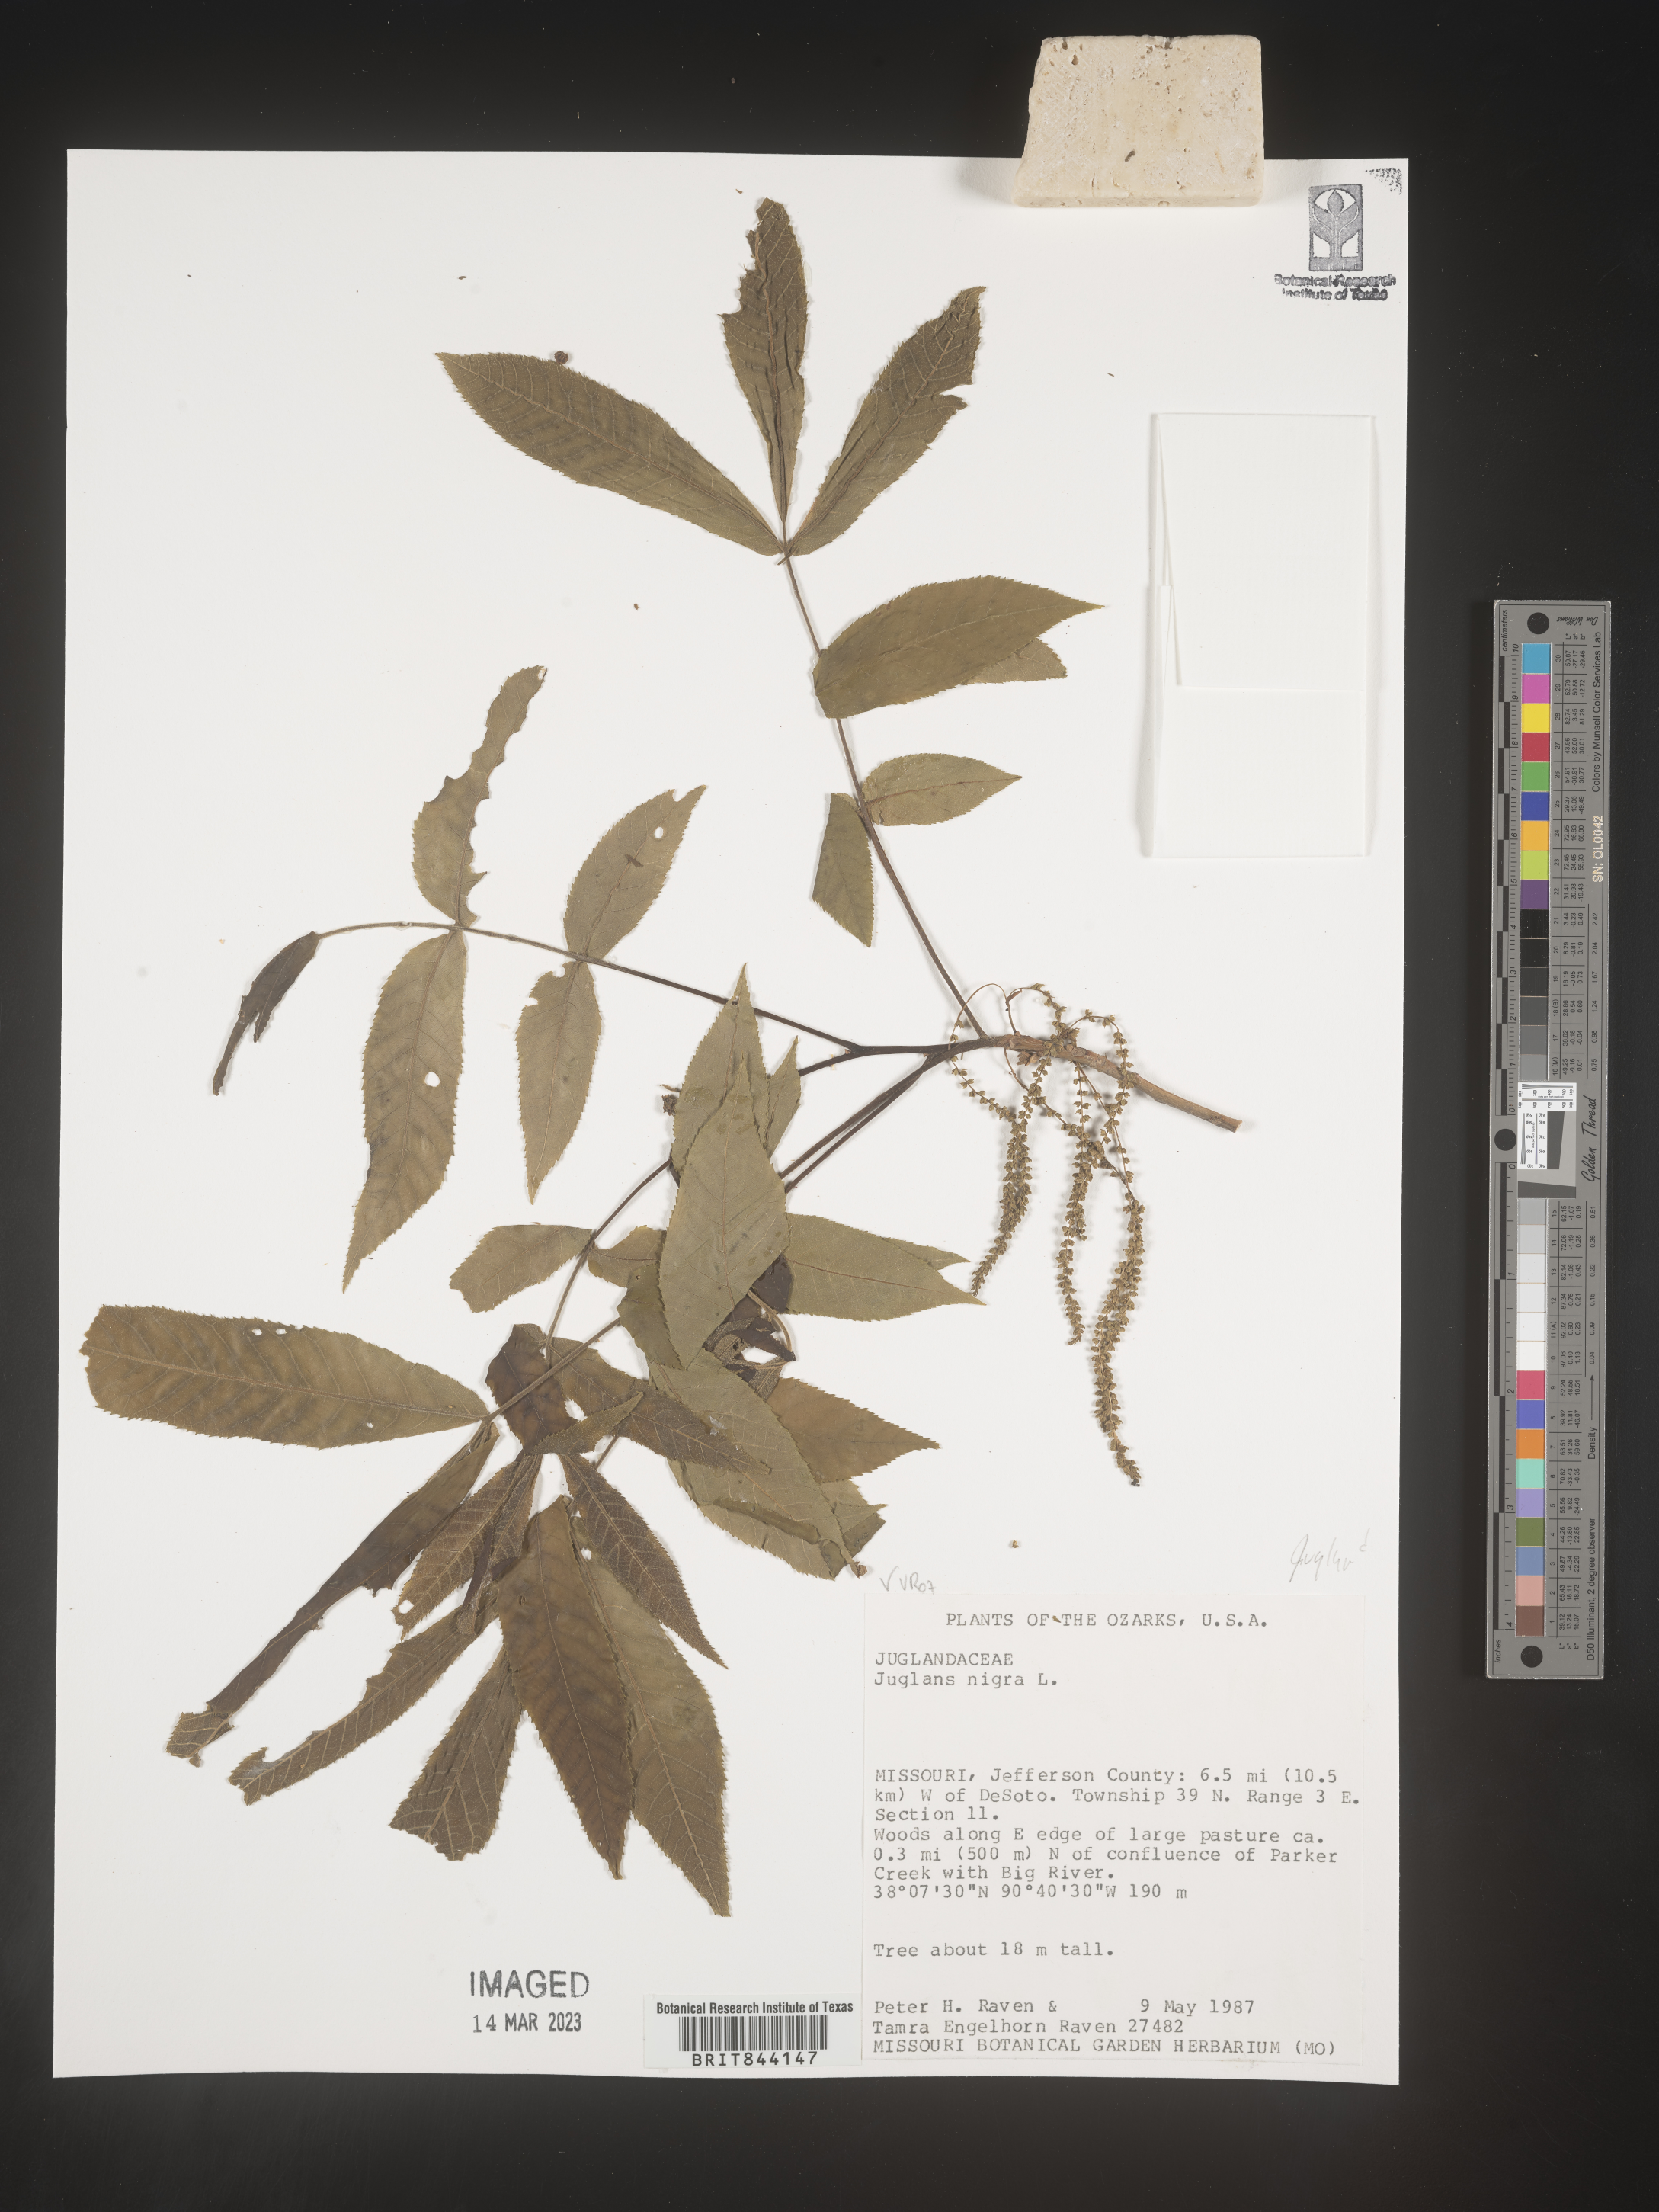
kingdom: Plantae
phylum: Tracheophyta
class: Magnoliopsida
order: Fagales
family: Juglandaceae
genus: Juglans
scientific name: Juglans nigra
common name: Black walnut
